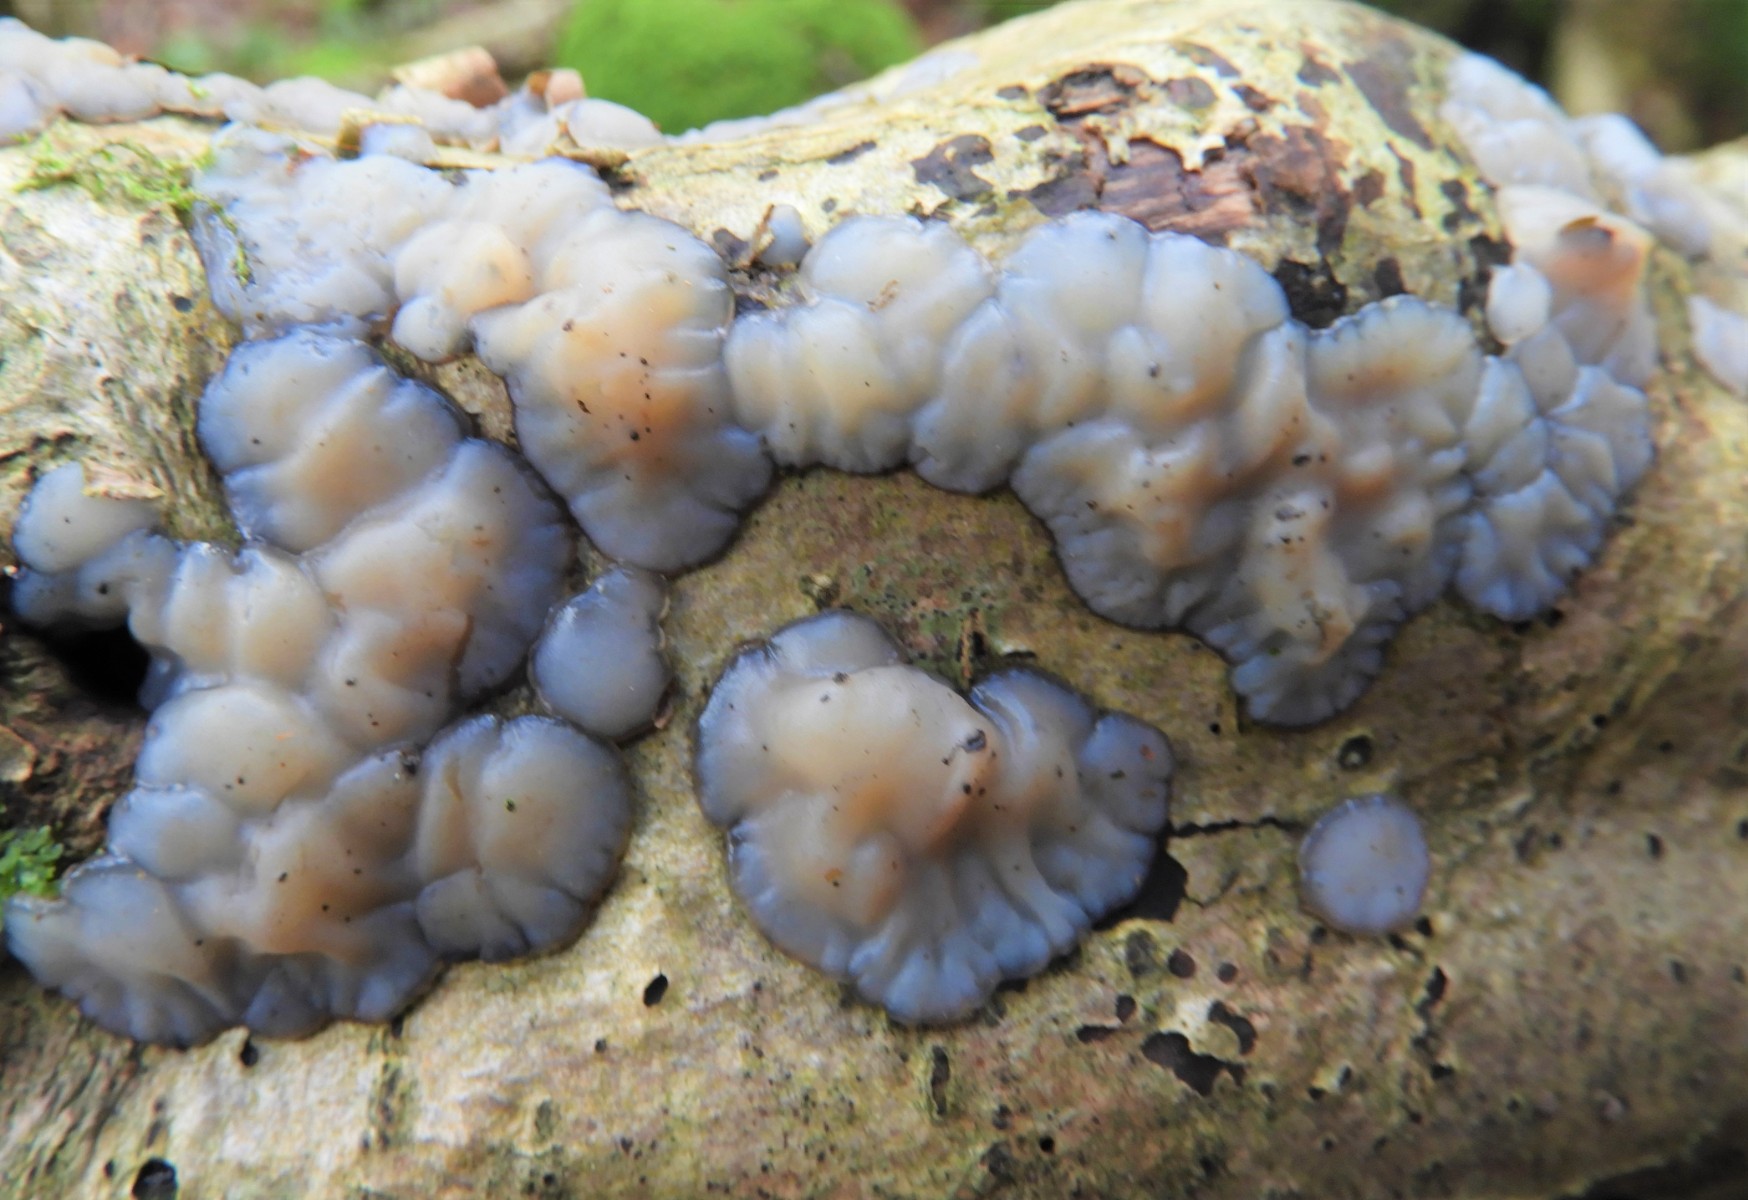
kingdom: Fungi
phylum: Basidiomycota
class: Agaricomycetes
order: Auriculariales
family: Auriculariaceae
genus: Exidia
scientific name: Exidia thuretiana
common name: hvidlig bævretop
